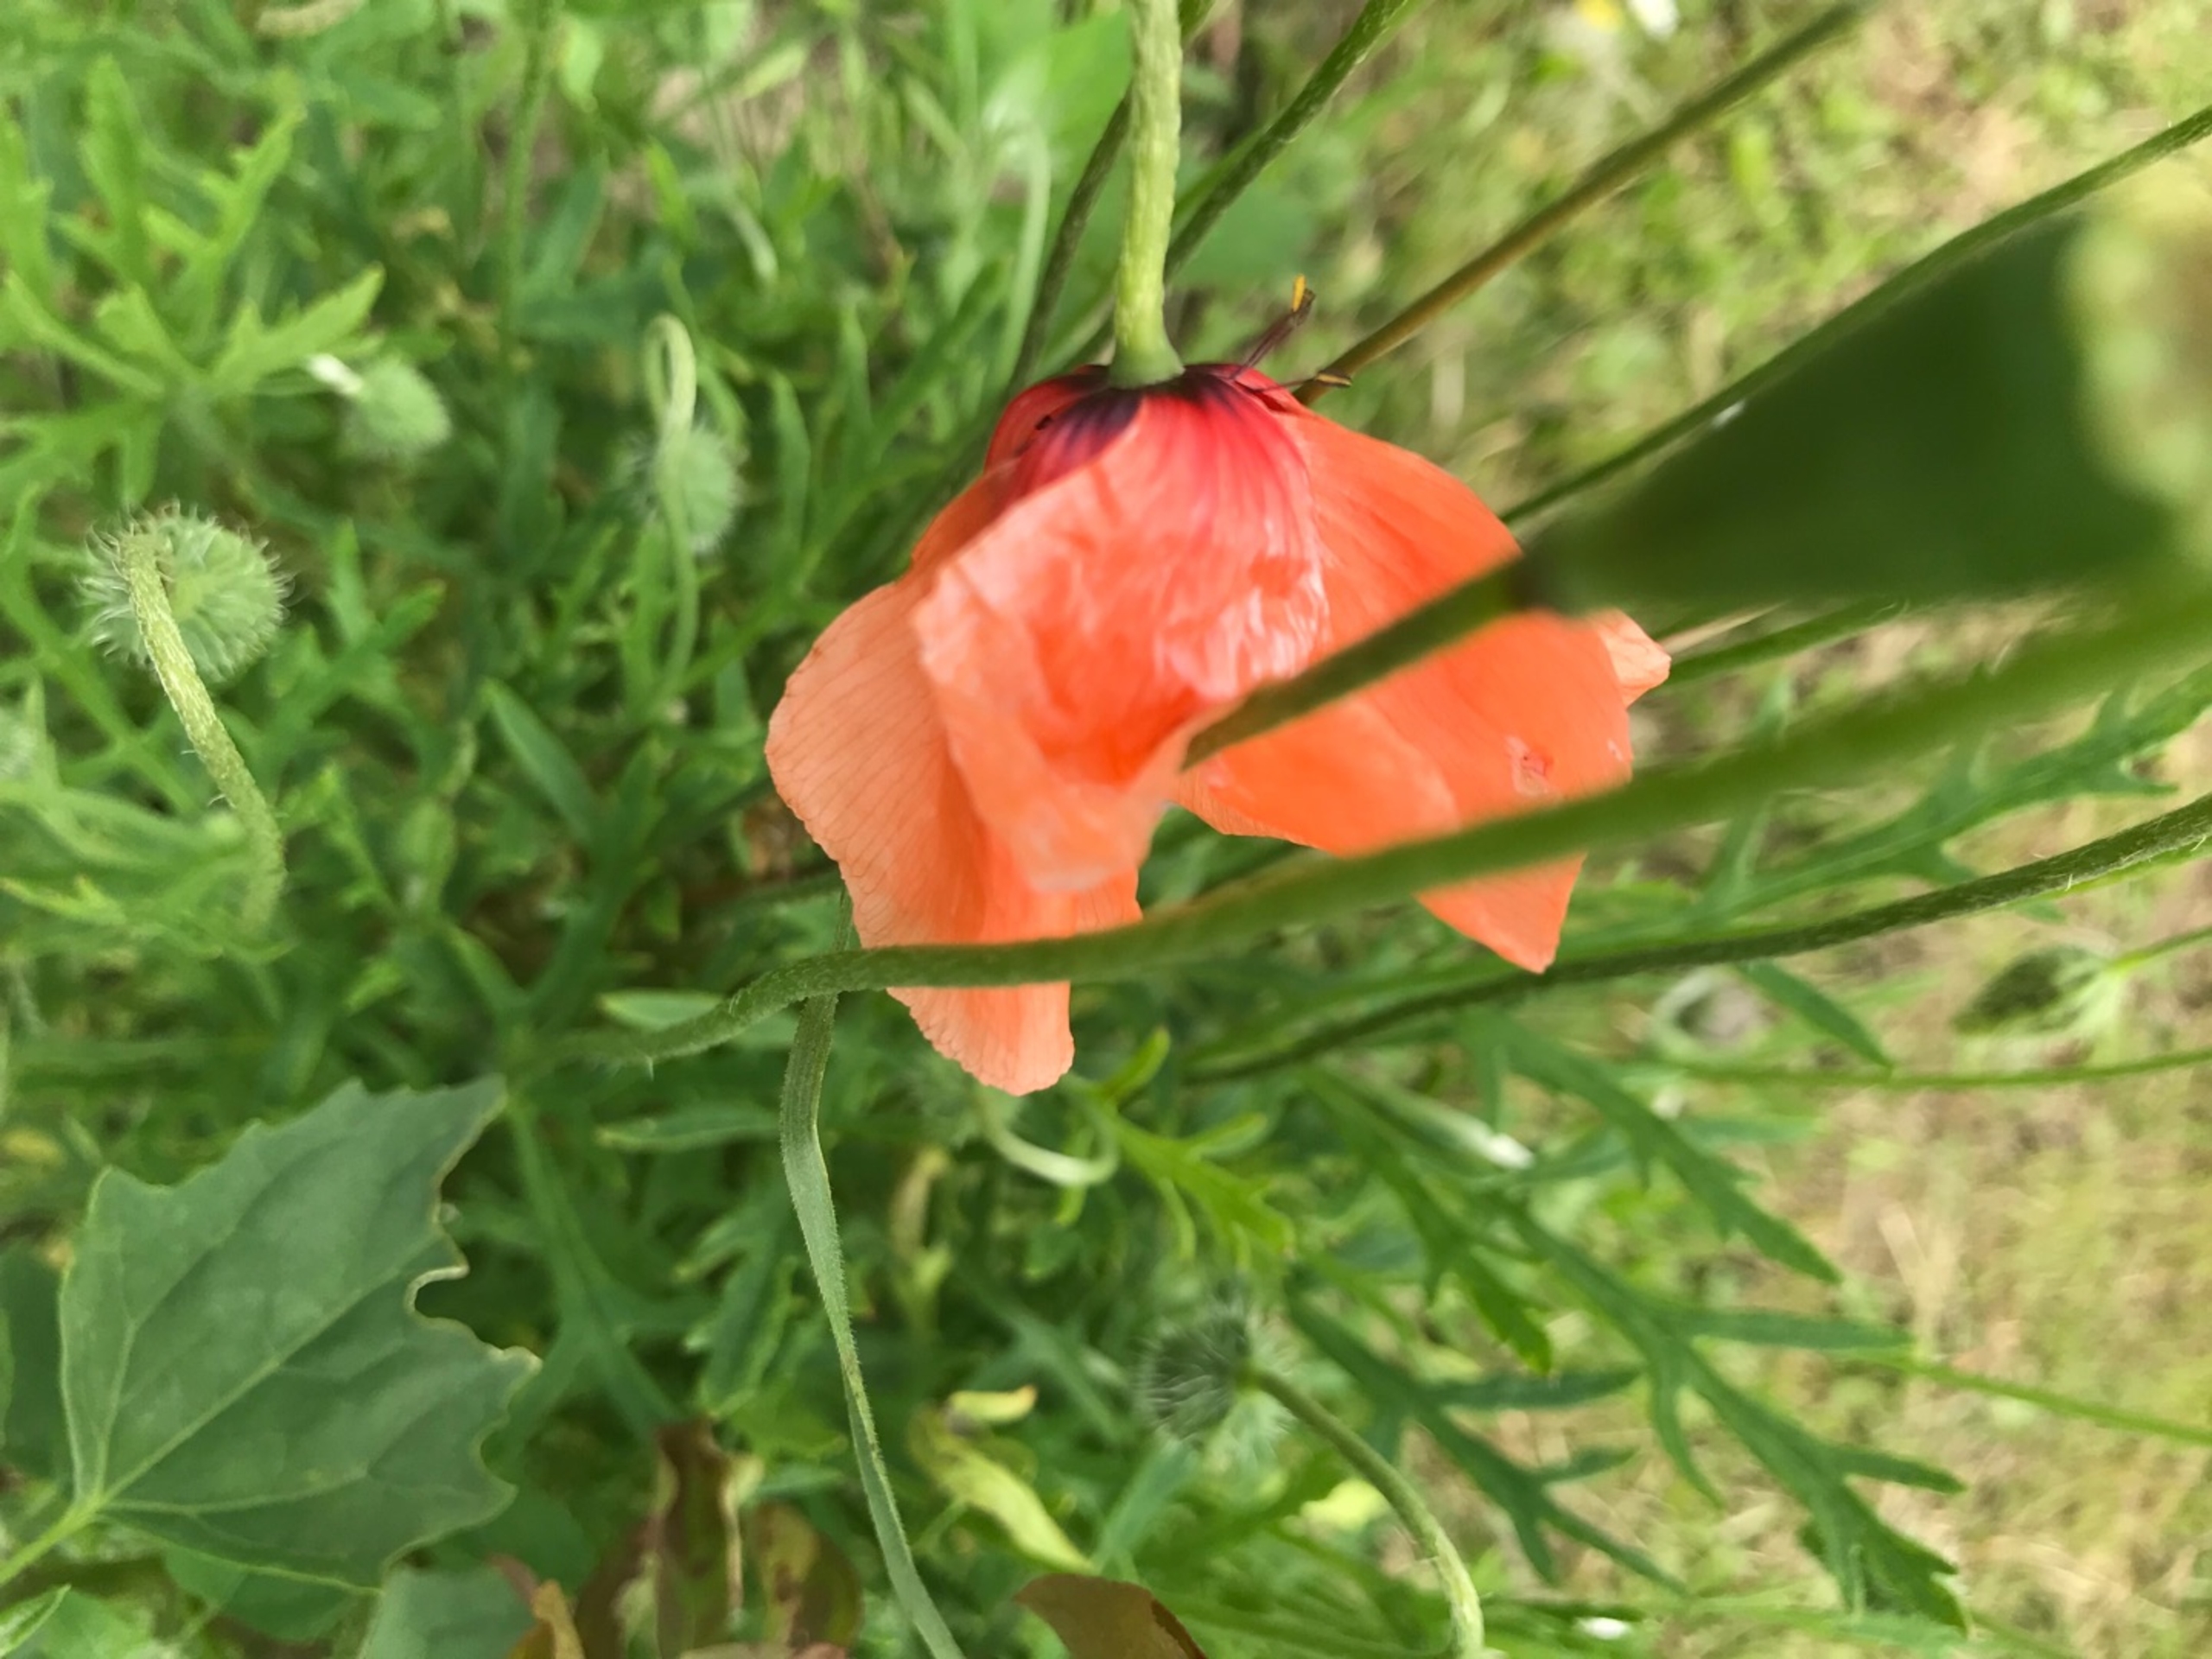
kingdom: Plantae
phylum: Tracheophyta
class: Magnoliopsida
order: Ranunculales
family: Papaveraceae
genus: Papaver
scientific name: Papaver dubium
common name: Gærde-valmue
